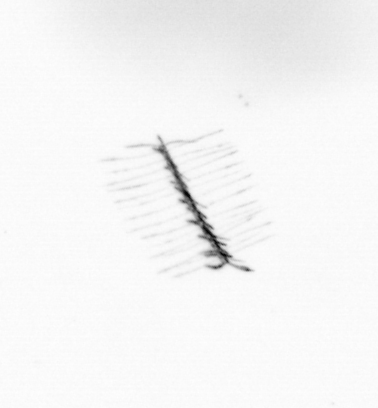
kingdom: Chromista
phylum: Ochrophyta
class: Bacillariophyceae
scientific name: Bacillariophyceae
